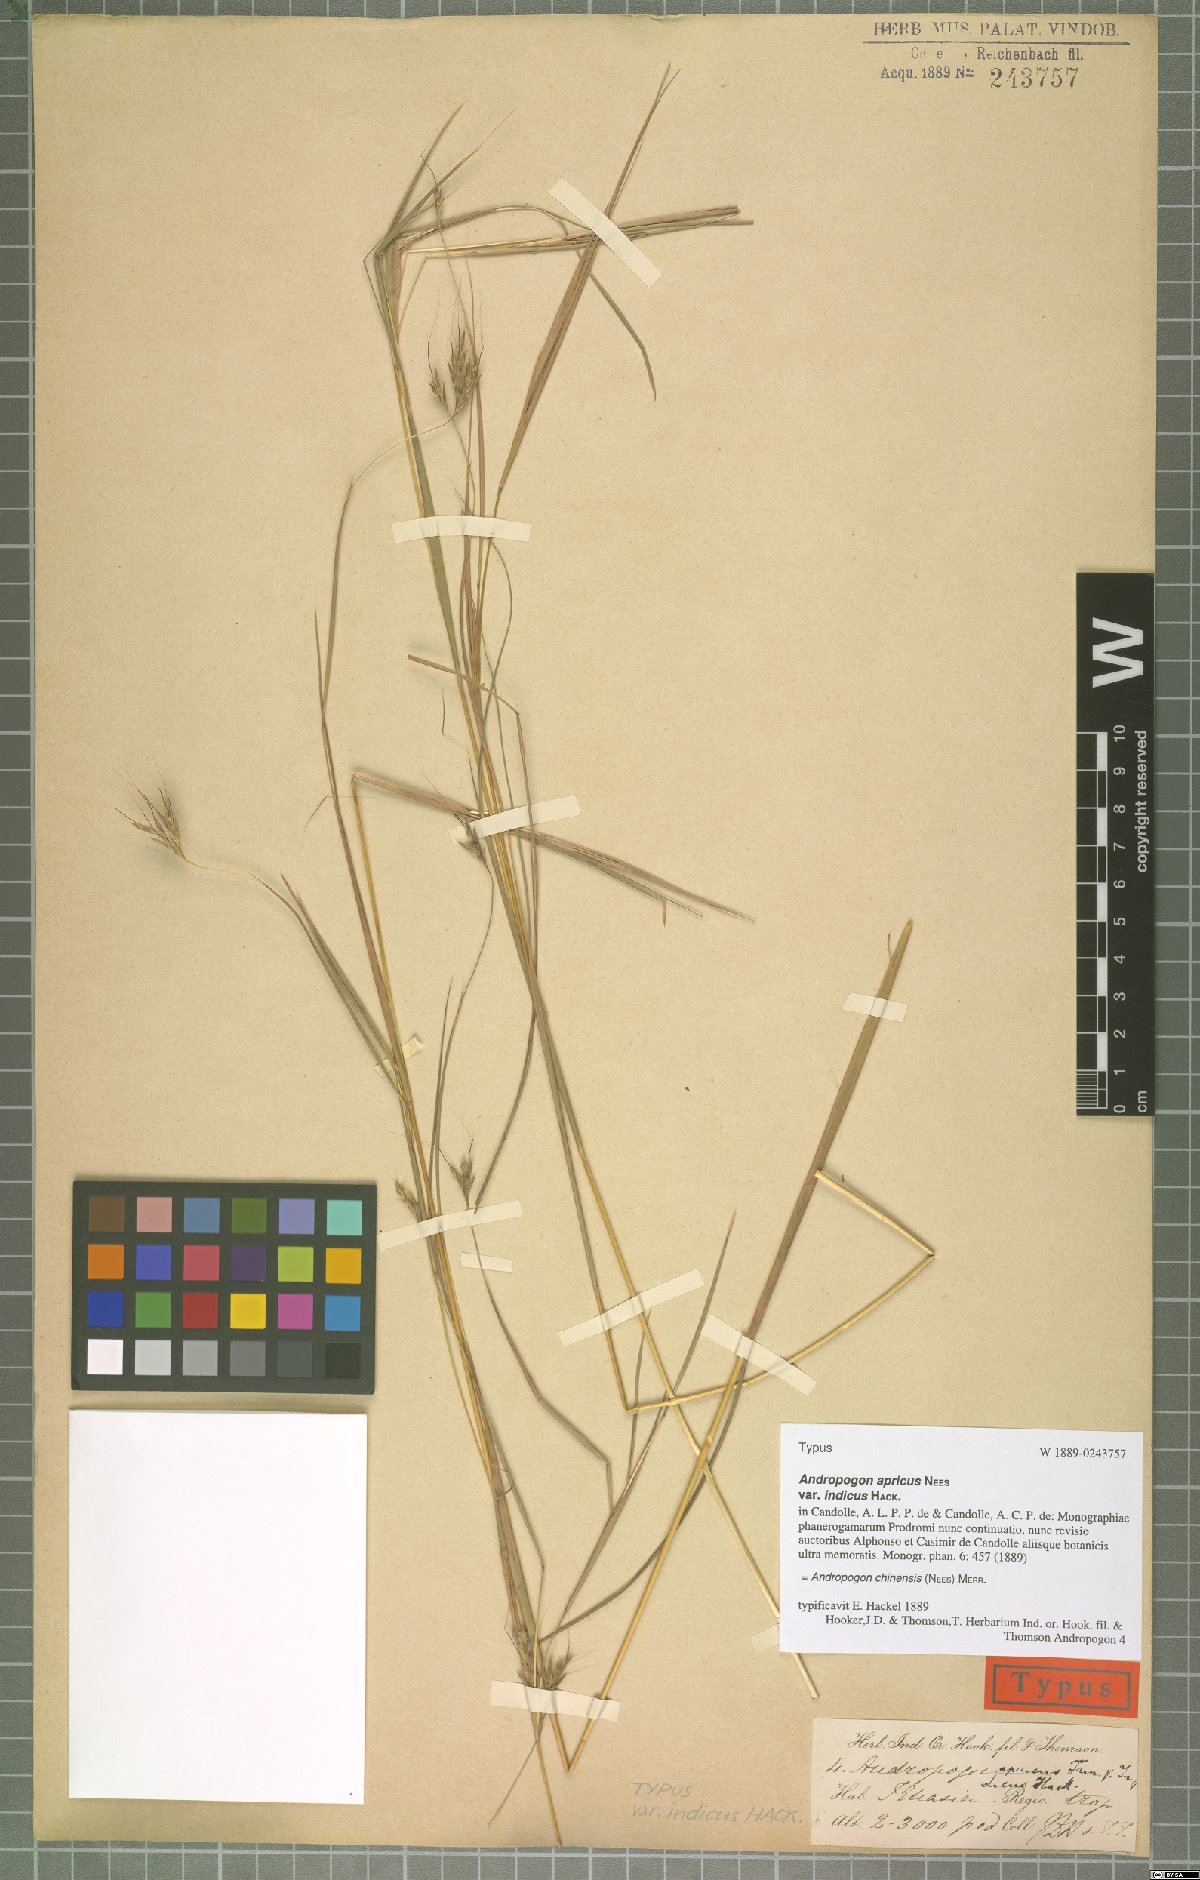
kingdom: Plantae
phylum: Tracheophyta
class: Liliopsida
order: Poales
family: Poaceae
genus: Andropogon
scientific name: Andropogon chinensis
